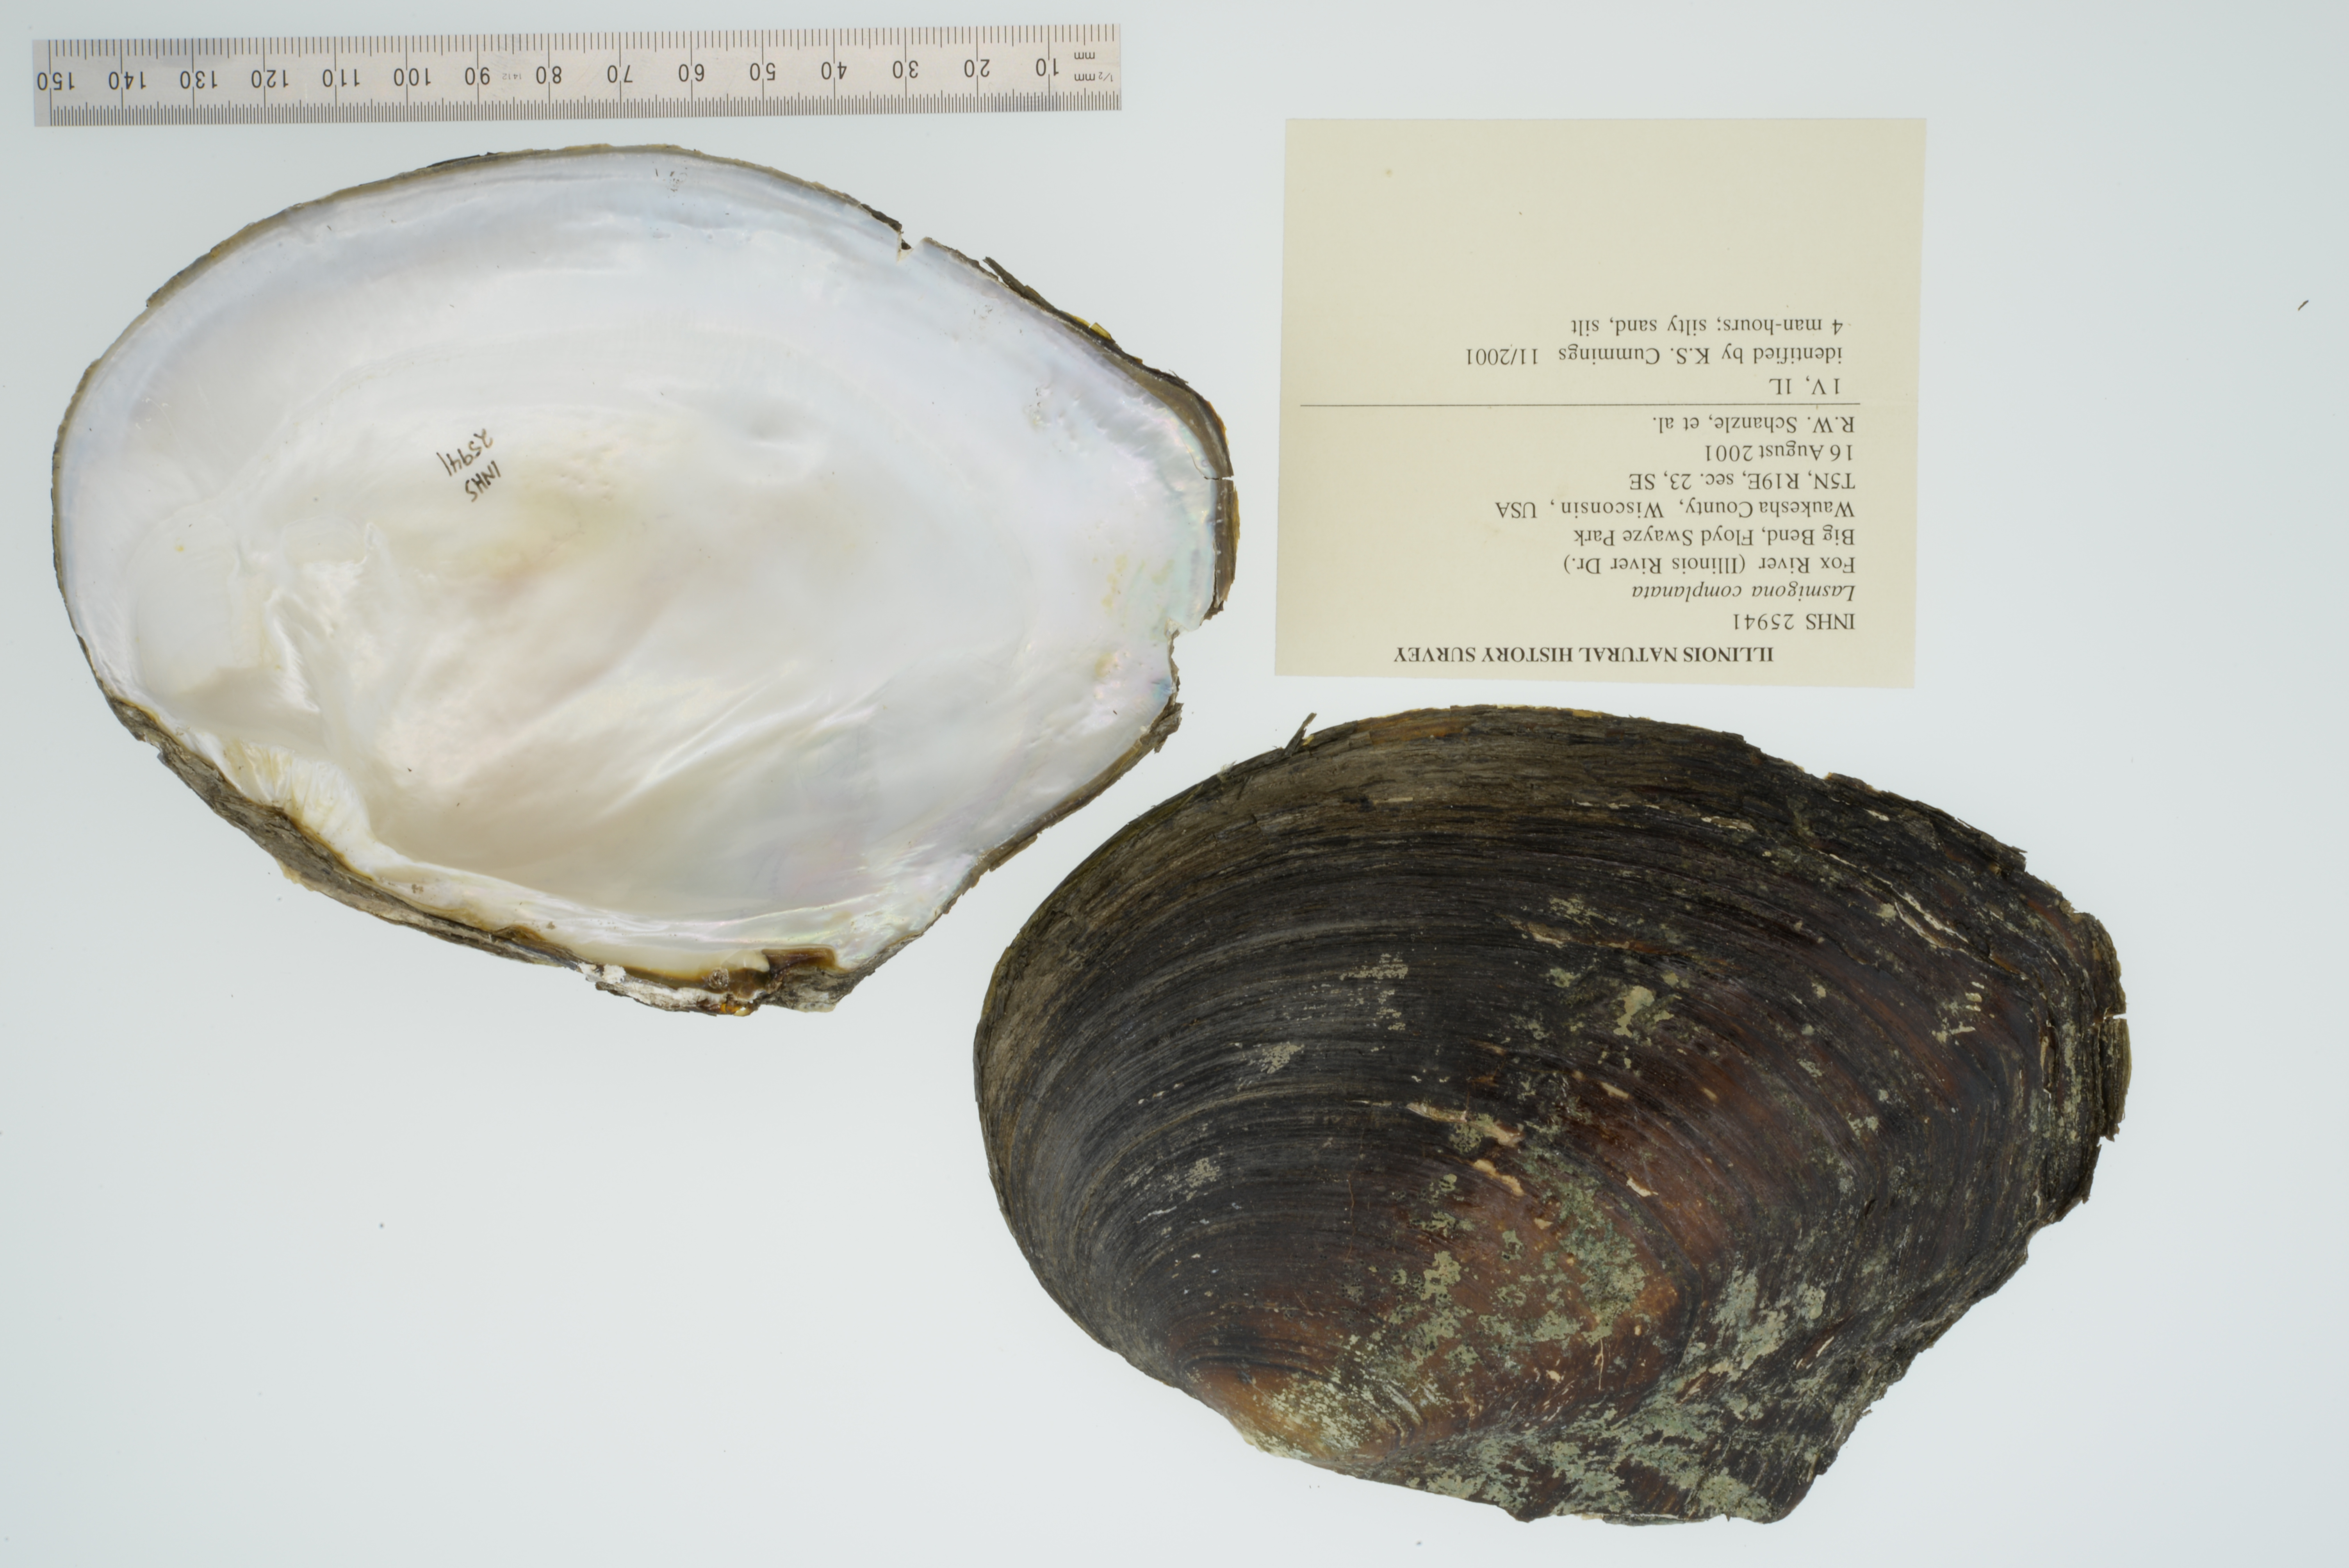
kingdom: Animalia
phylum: Mollusca
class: Bivalvia
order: Unionida
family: Unionidae
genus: Lasmigona
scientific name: Lasmigona complanata
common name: White heelsplitter
